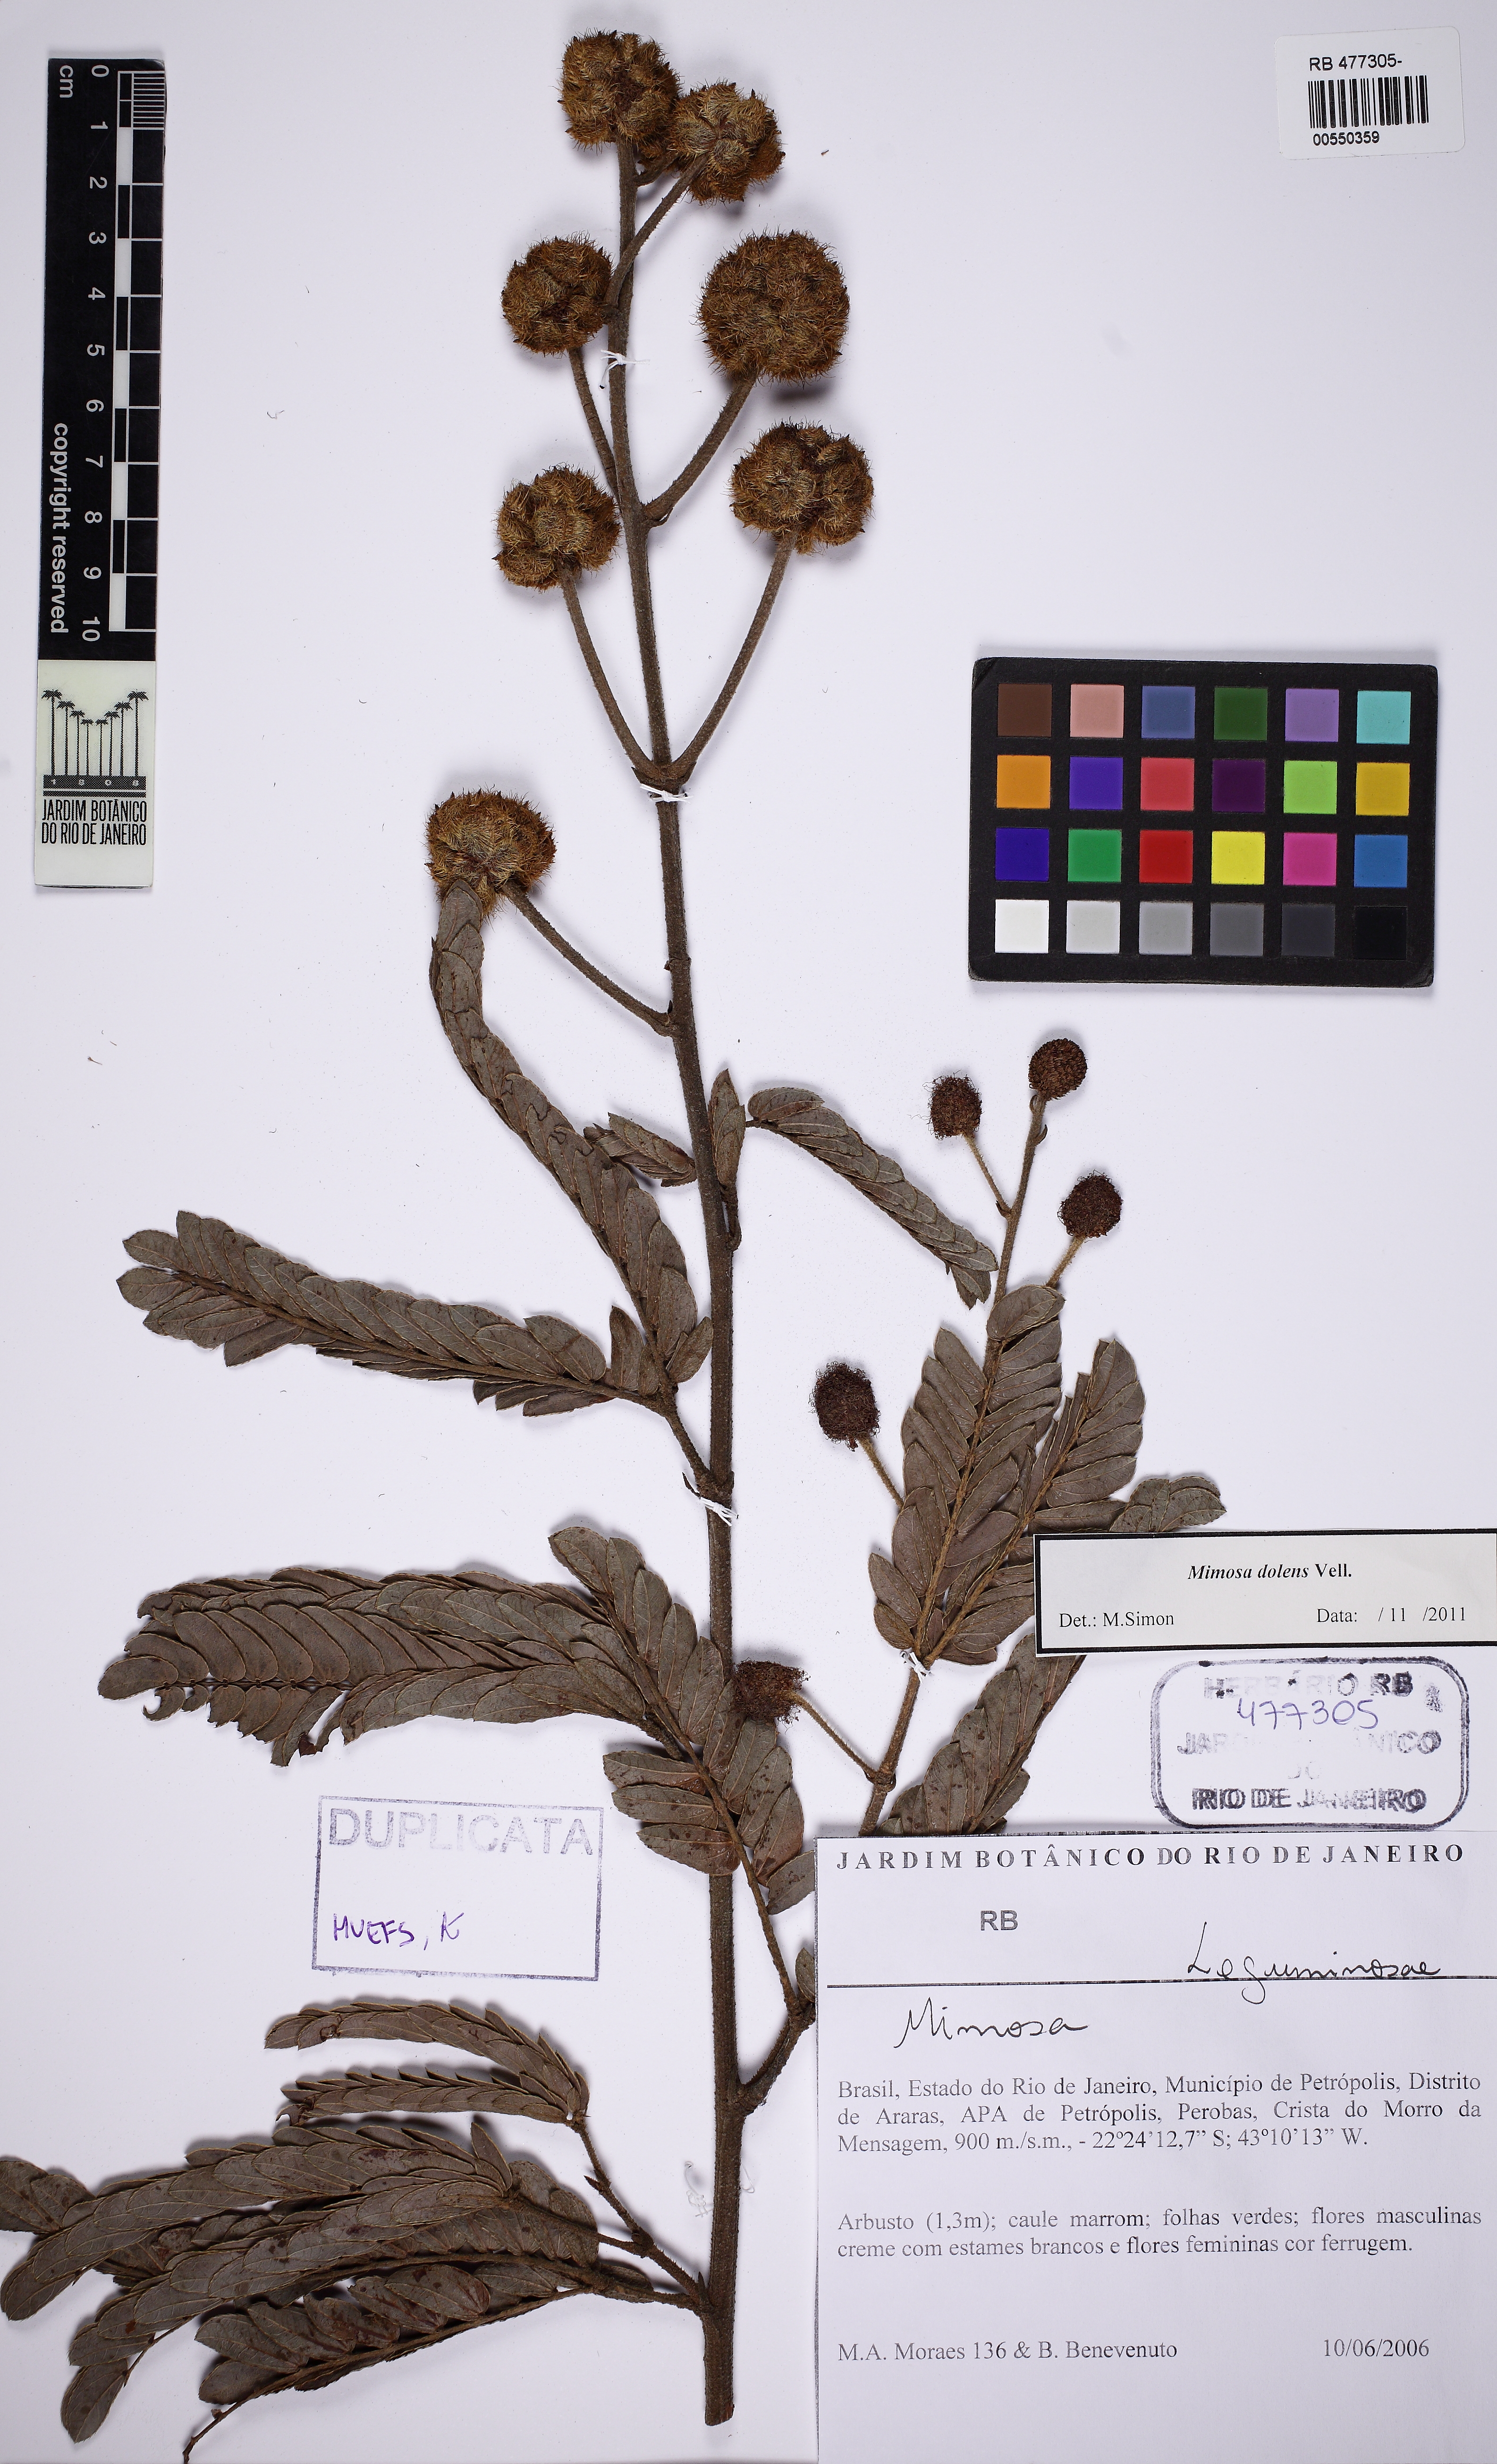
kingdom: Plantae
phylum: Tracheophyta
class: Magnoliopsida
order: Fabales
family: Fabaceae
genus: Mimosa
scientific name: Mimosa dolens
